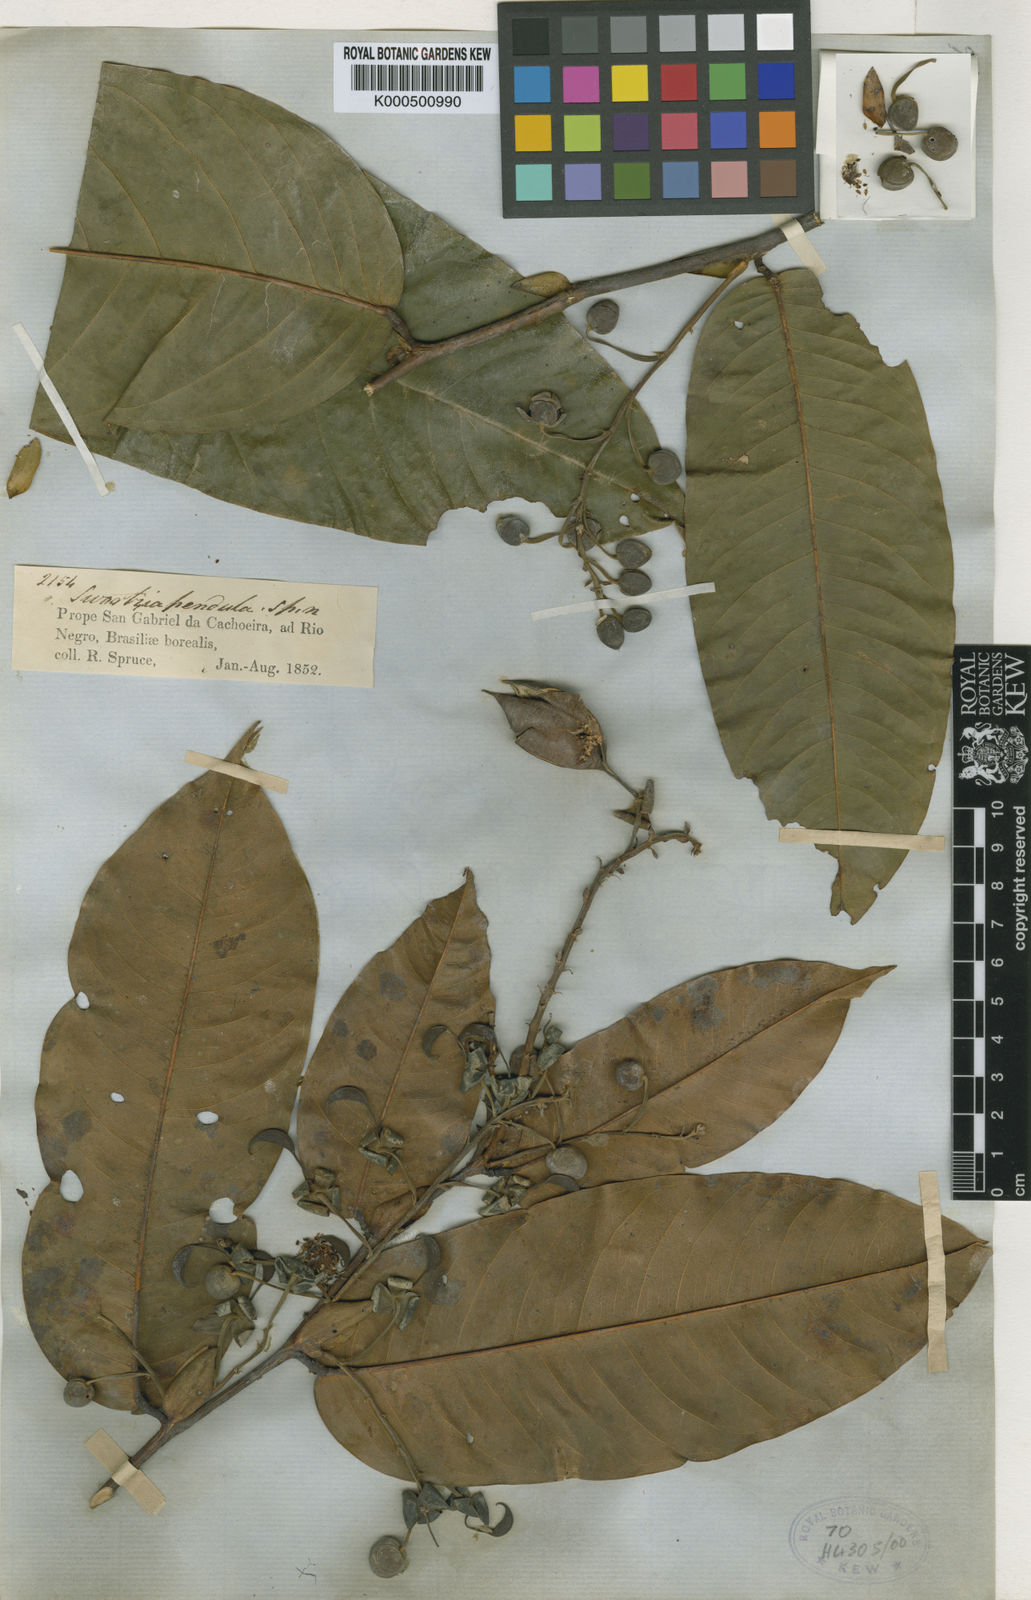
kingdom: Plantae
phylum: Tracheophyta
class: Magnoliopsida
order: Fabales
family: Fabaceae
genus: Swartzia
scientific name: Swartzia pendula
